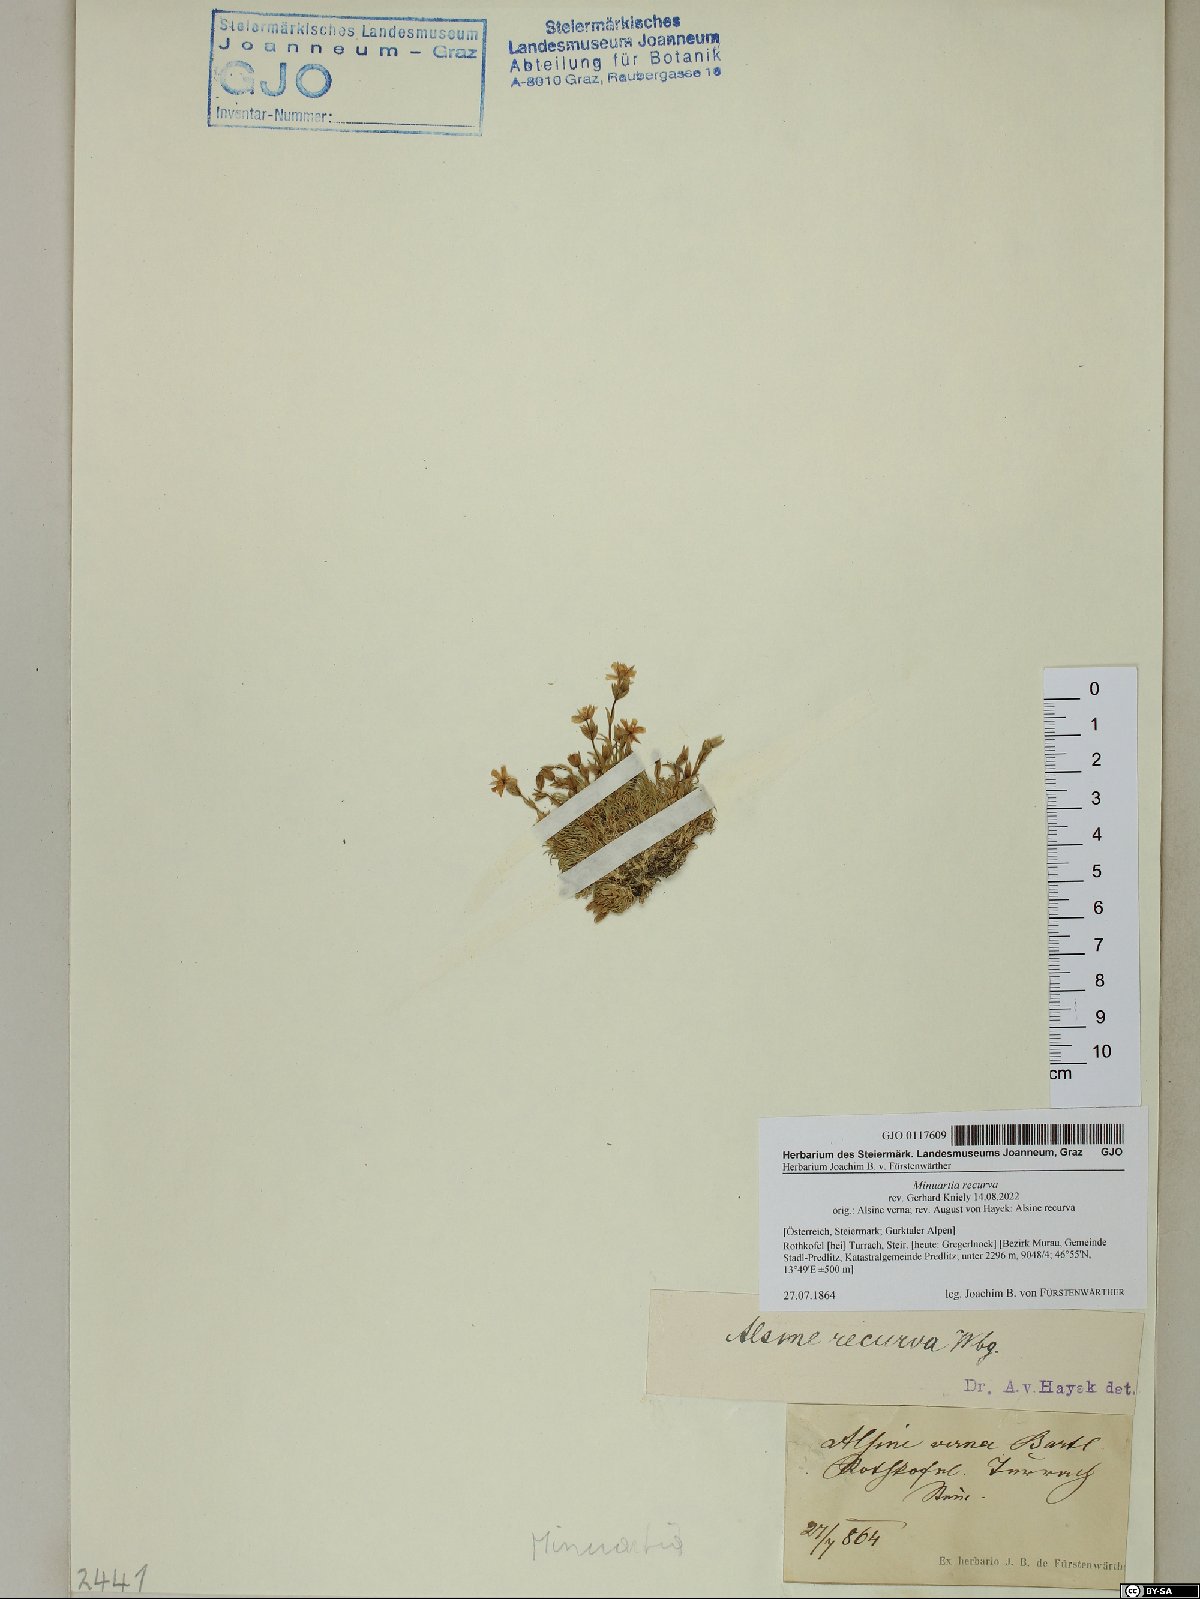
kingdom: Plantae
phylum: Tracheophyta
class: Magnoliopsida
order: Caryophyllales
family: Caryophyllaceae
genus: Minuartia
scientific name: Minuartia recurva
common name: Recurved sandwort
